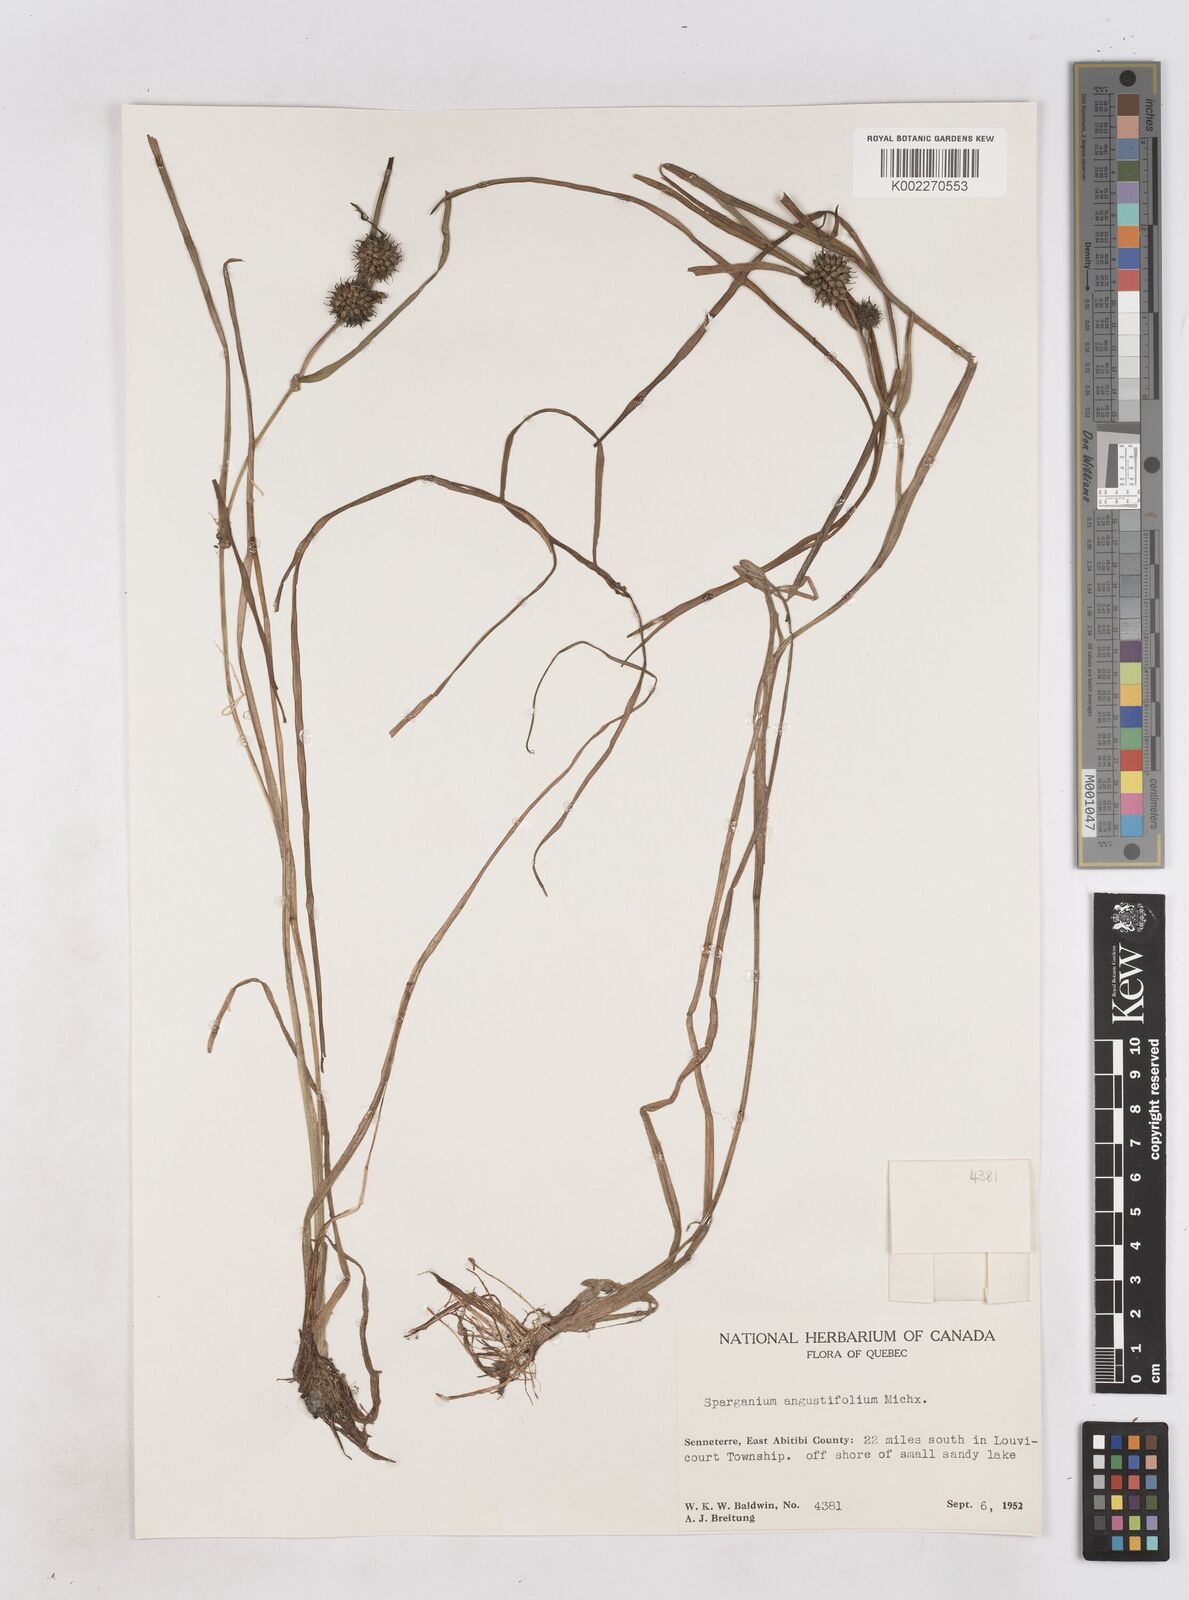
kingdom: Plantae
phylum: Tracheophyta
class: Liliopsida
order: Poales
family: Typhaceae
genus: Sparganium
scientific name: Sparganium angustifolium
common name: Floating bur-reed
